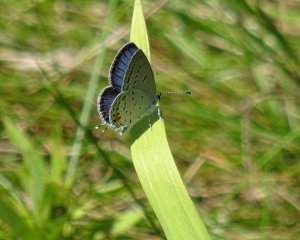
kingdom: Animalia
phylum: Arthropoda
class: Insecta
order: Lepidoptera
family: Lycaenidae
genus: Elkalyce
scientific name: Elkalyce comyntas
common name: Eastern Tailed-Blue
